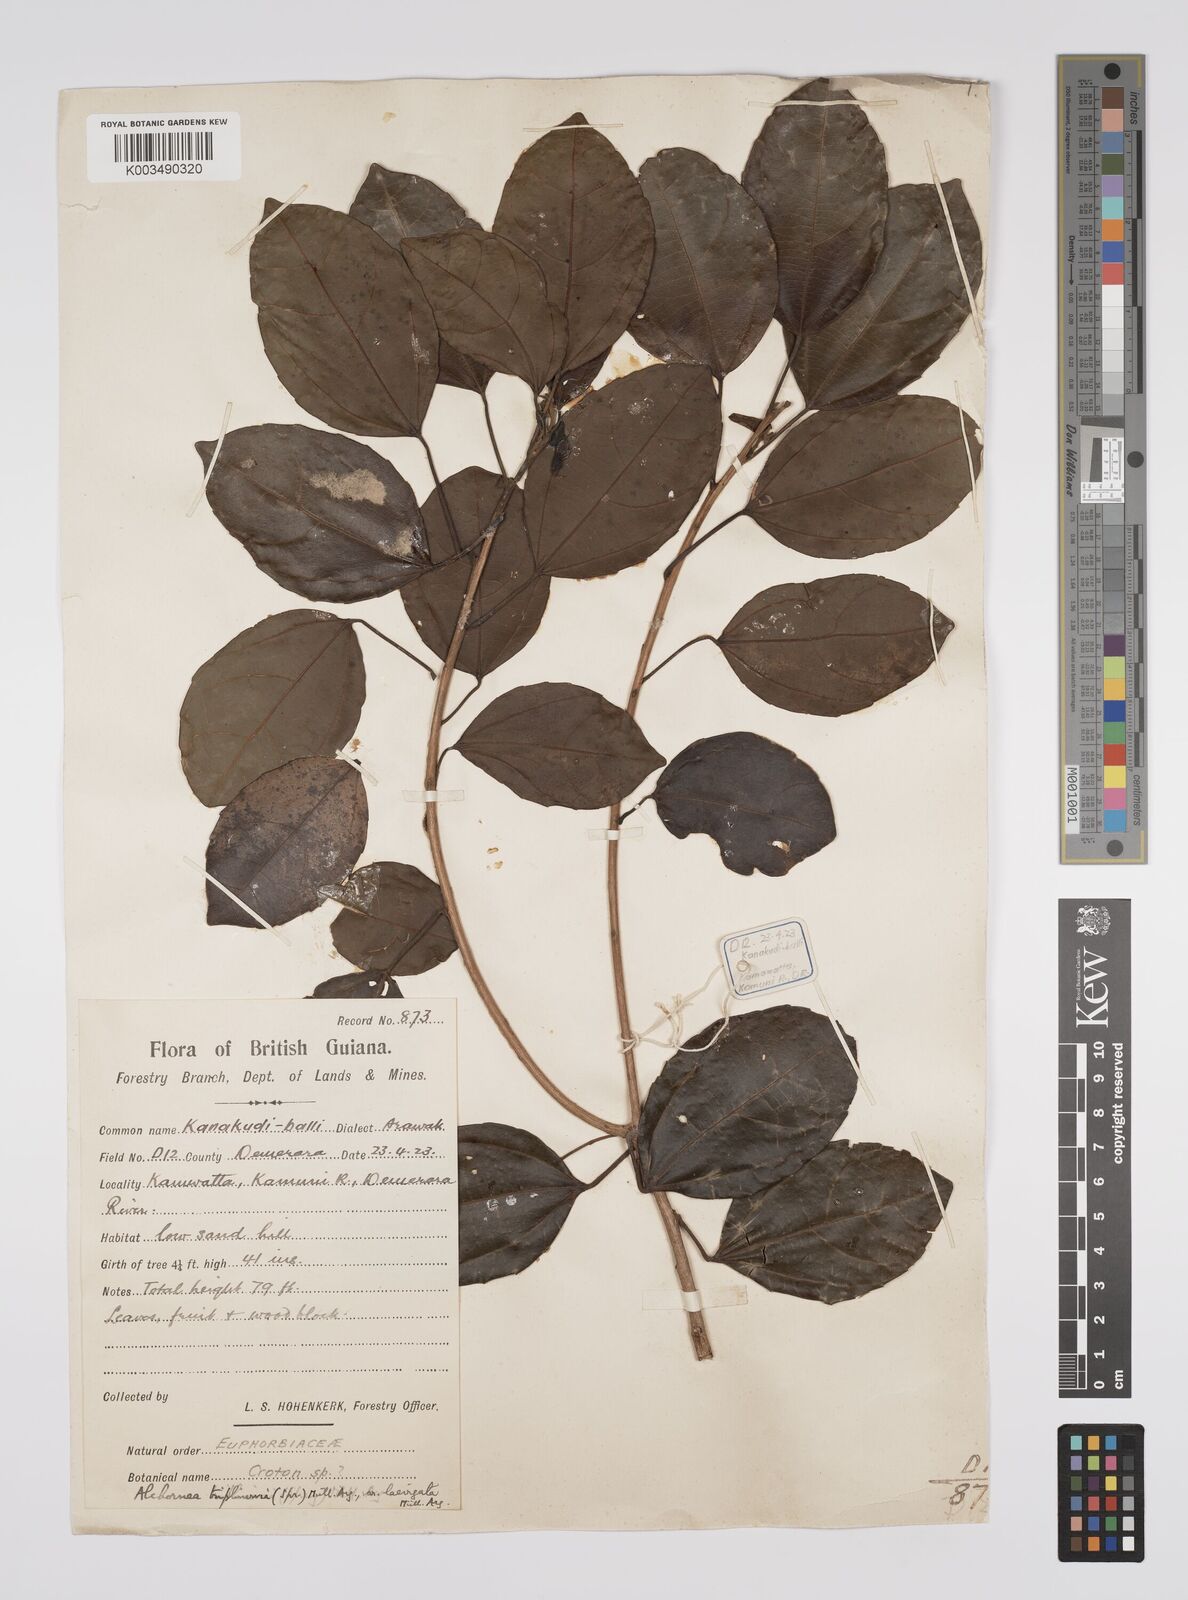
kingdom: Plantae
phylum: Tracheophyta
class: Magnoliopsida
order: Malpighiales
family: Euphorbiaceae
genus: Alchornea
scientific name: Alchornea triplinervia
